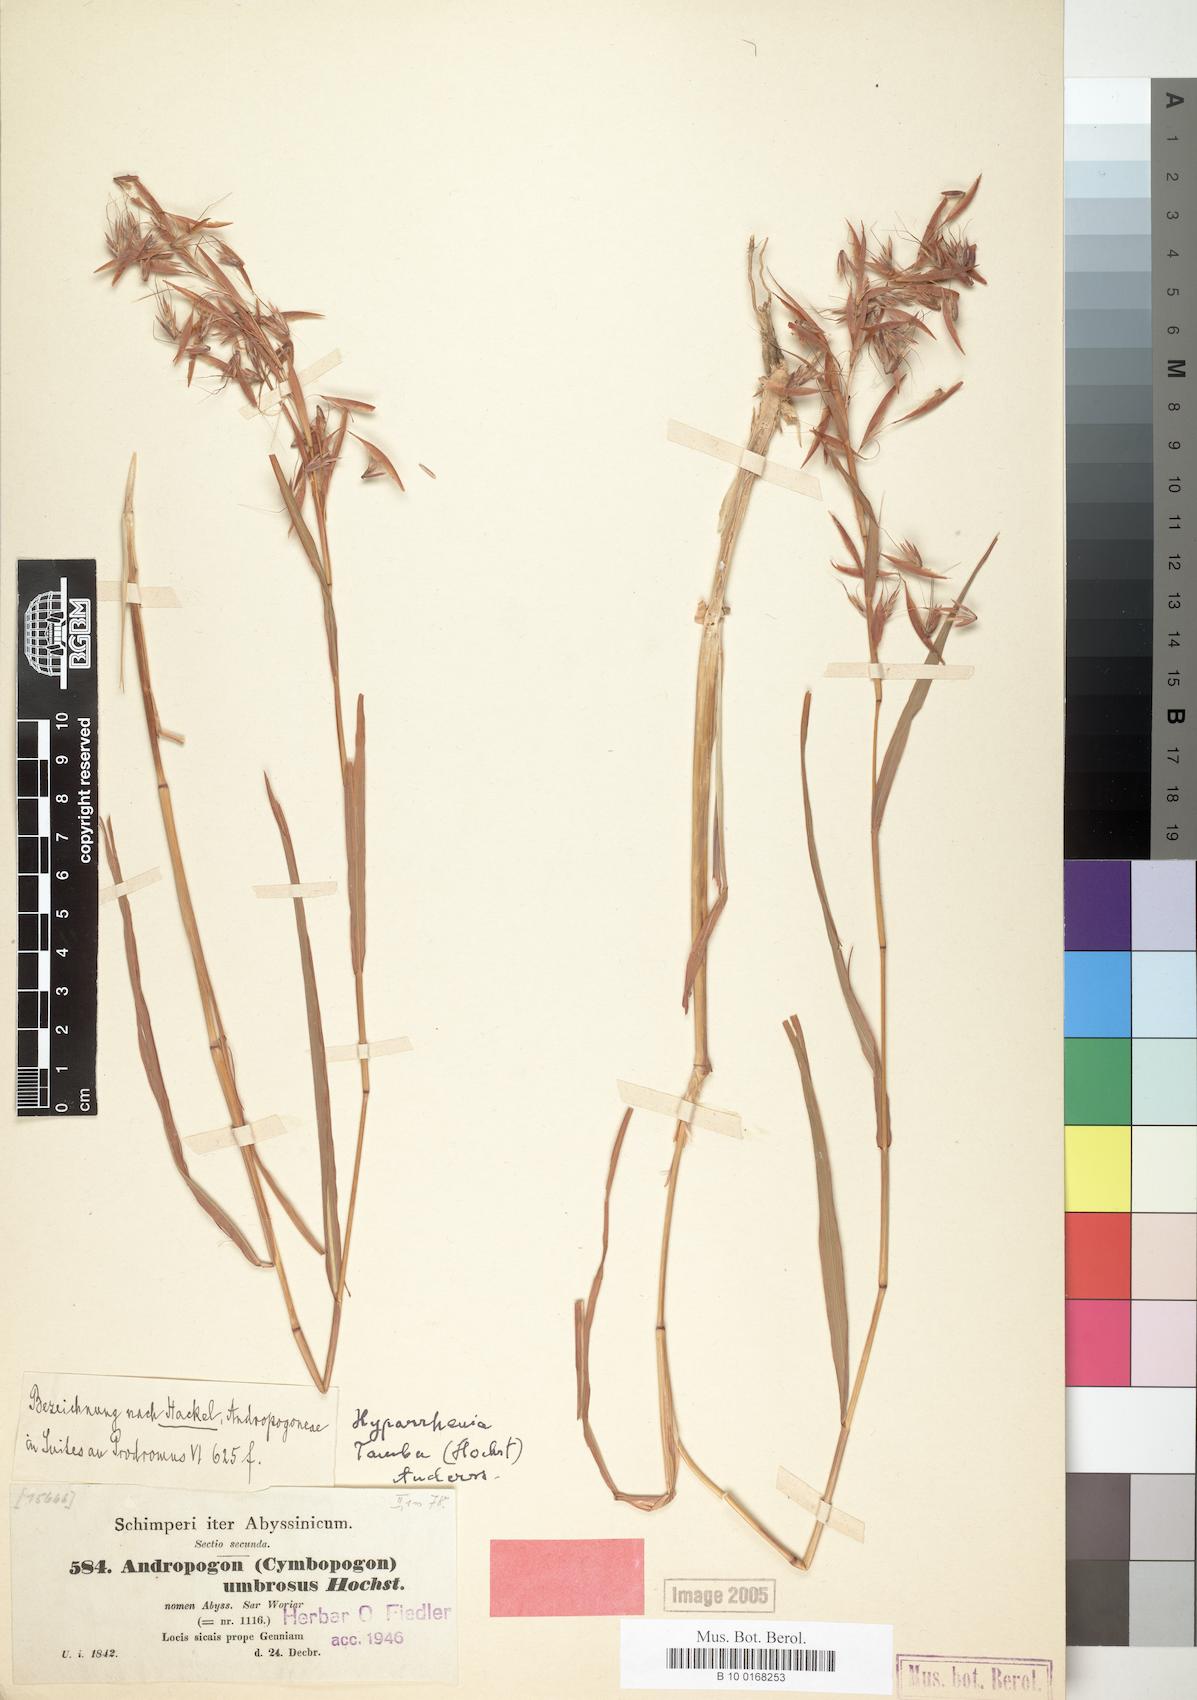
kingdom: Plantae
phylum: Tracheophyta
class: Liliopsida
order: Poales
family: Poaceae
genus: Andropogon
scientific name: Andropogon umbrosus
